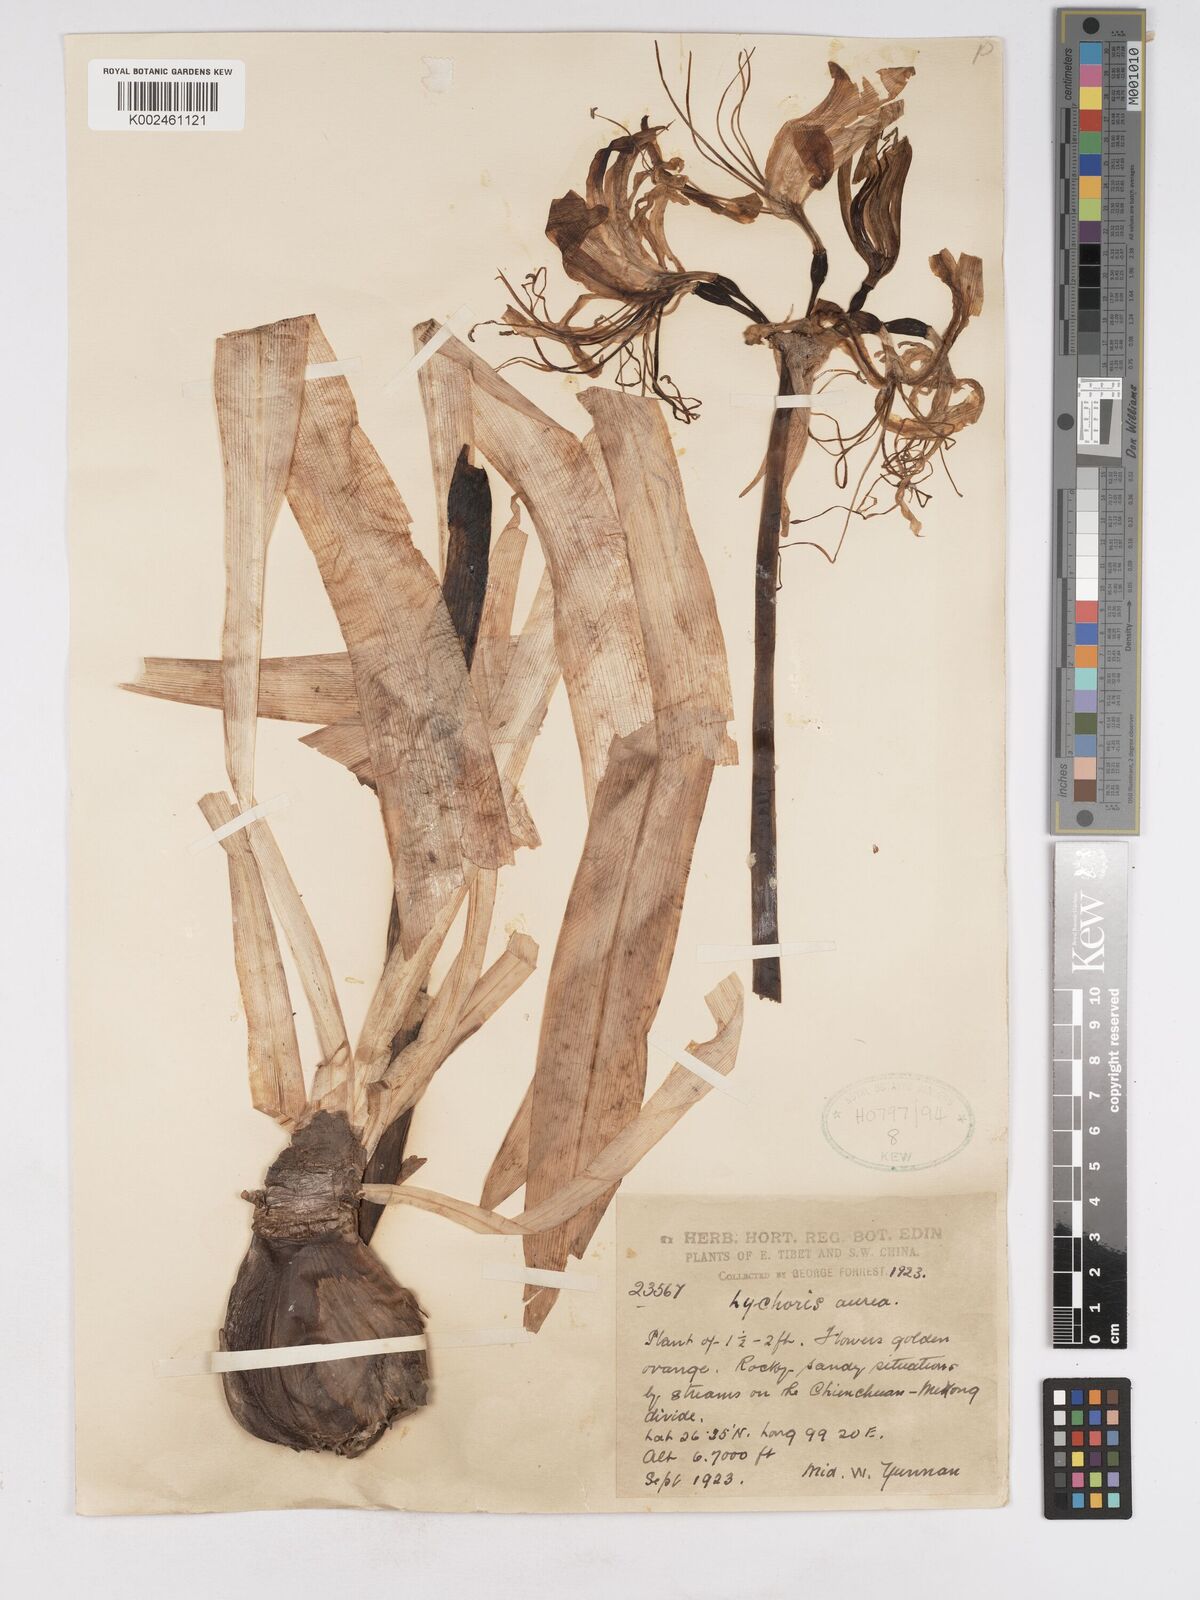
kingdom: Plantae
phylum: Tracheophyta
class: Liliopsida
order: Asparagales
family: Amaryllidaceae
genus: Lycoris
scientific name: Lycoris aurea
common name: Golden hurricane-lily
